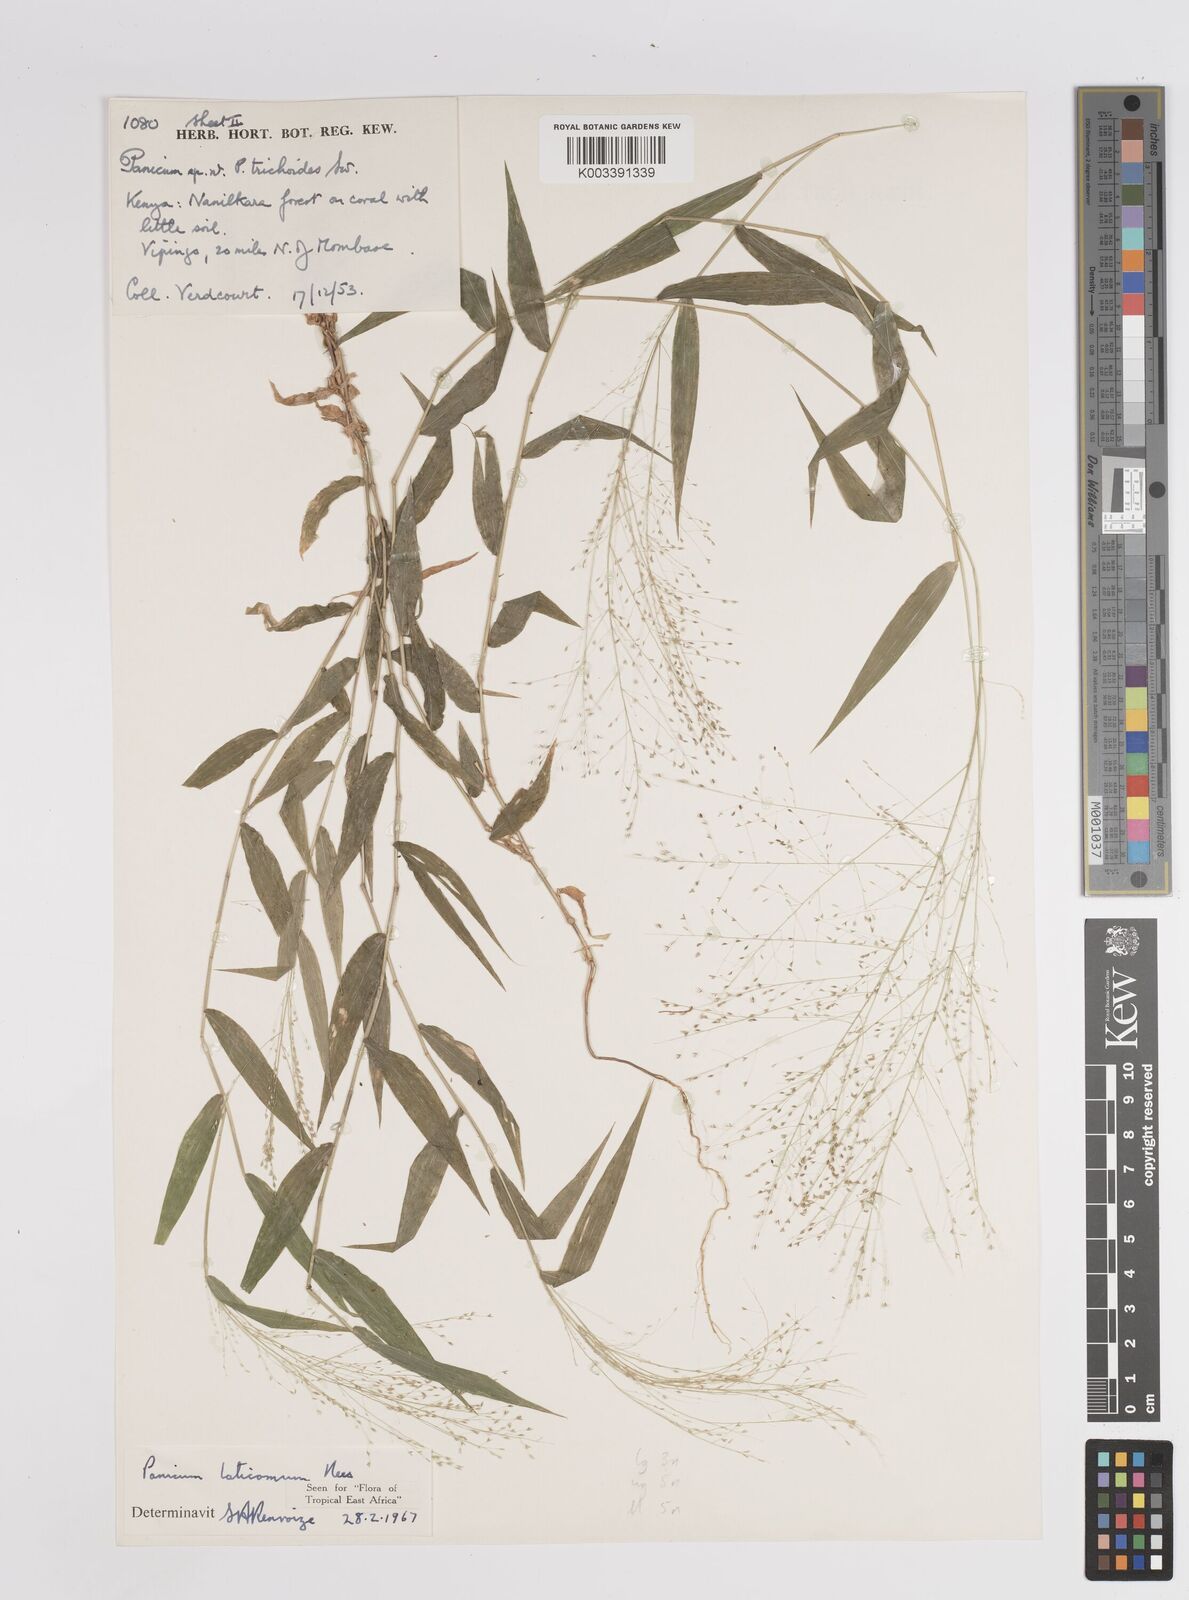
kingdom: Plantae
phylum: Tracheophyta
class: Liliopsida
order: Poales
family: Poaceae
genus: Panicum
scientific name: Panicum laticomum
